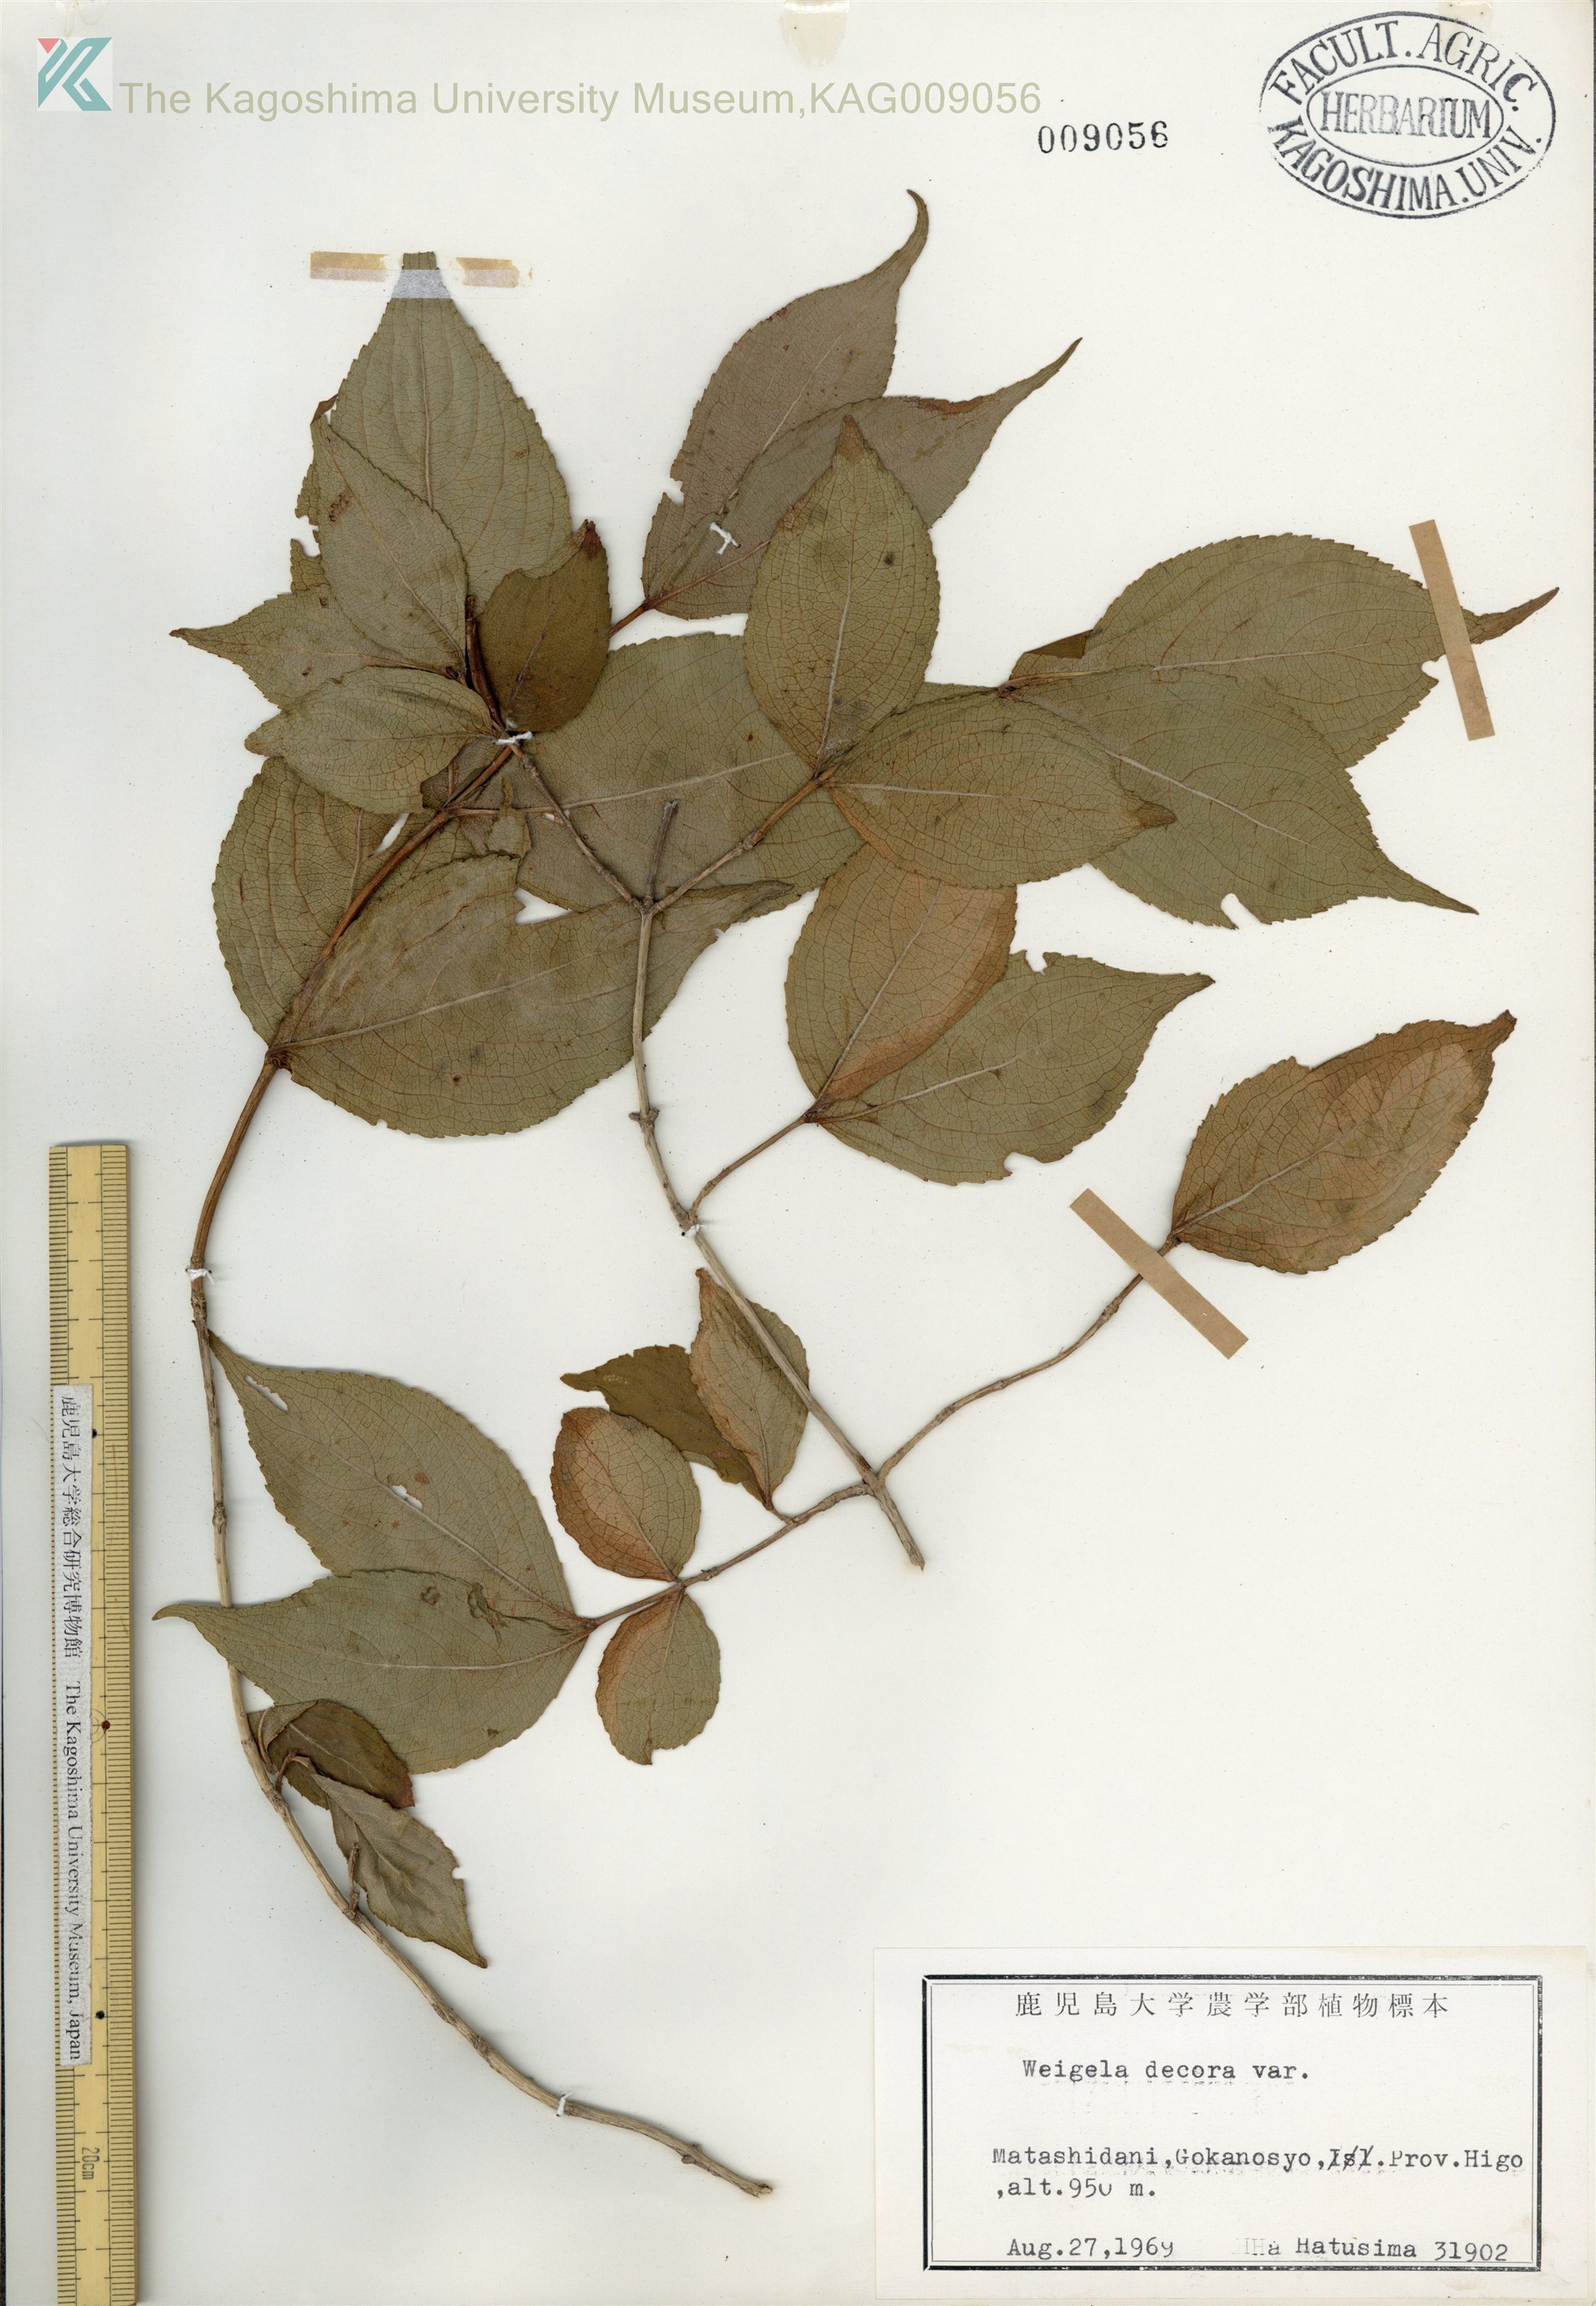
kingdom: Plantae
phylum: Tracheophyta
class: Magnoliopsida
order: Dipsacales
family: Caprifoliaceae
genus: Weigela
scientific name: Weigela decora
